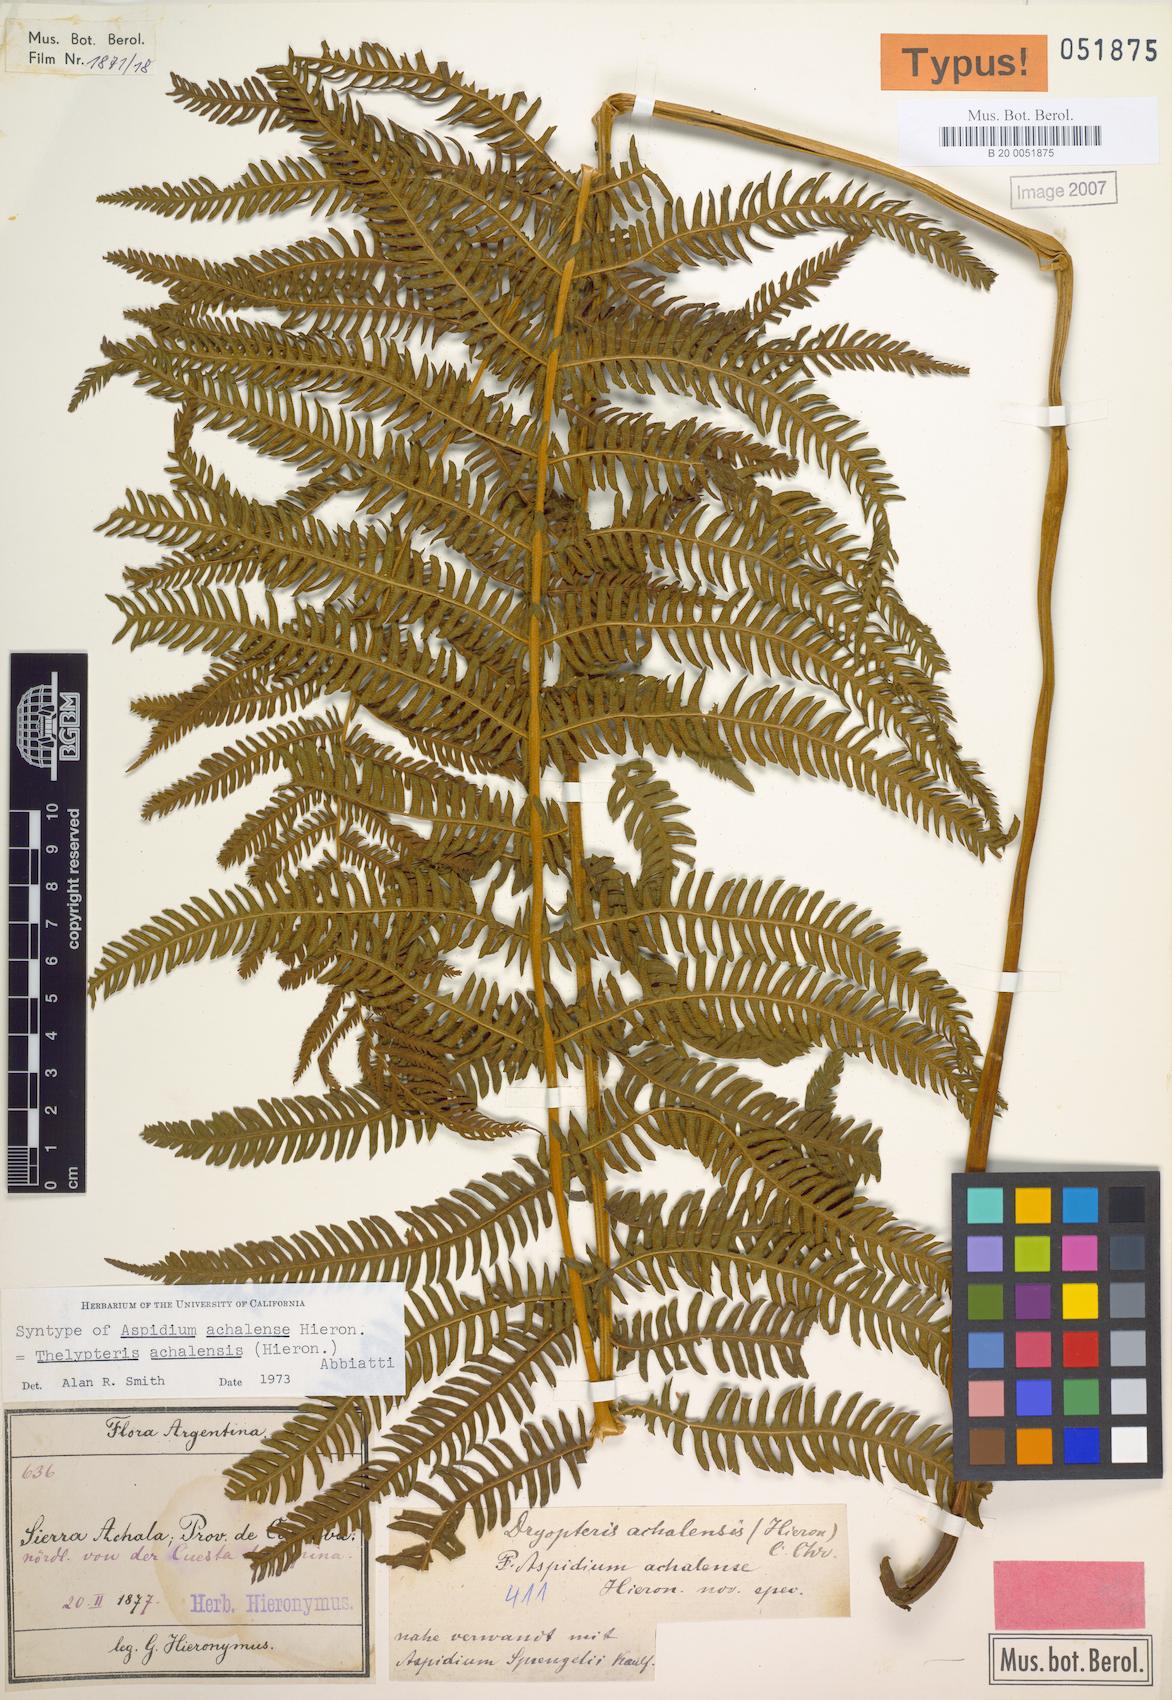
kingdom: Plantae
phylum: Tracheophyta
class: Polypodiopsida
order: Polypodiales
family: Thelypteridaceae
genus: Amauropelta
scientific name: Amauropelta achalensis
